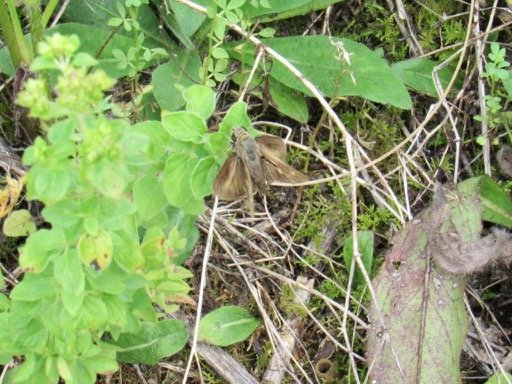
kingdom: Animalia
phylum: Arthropoda
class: Insecta
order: Lepidoptera
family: Hesperiidae
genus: Polites
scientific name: Polites egeremet
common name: Northern Broken-Dash
